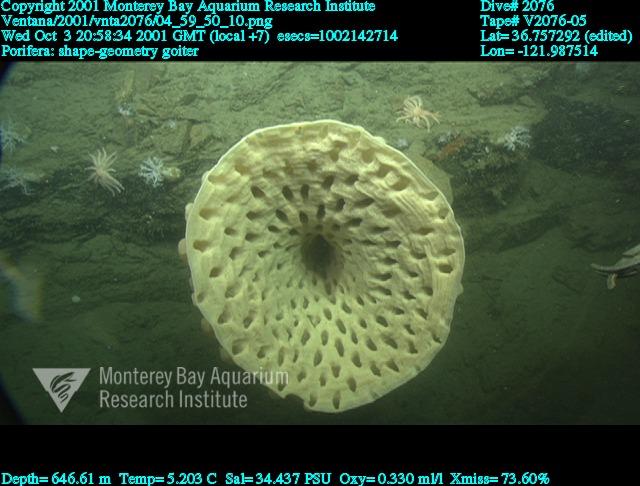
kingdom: Animalia
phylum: Porifera
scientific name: Porifera
